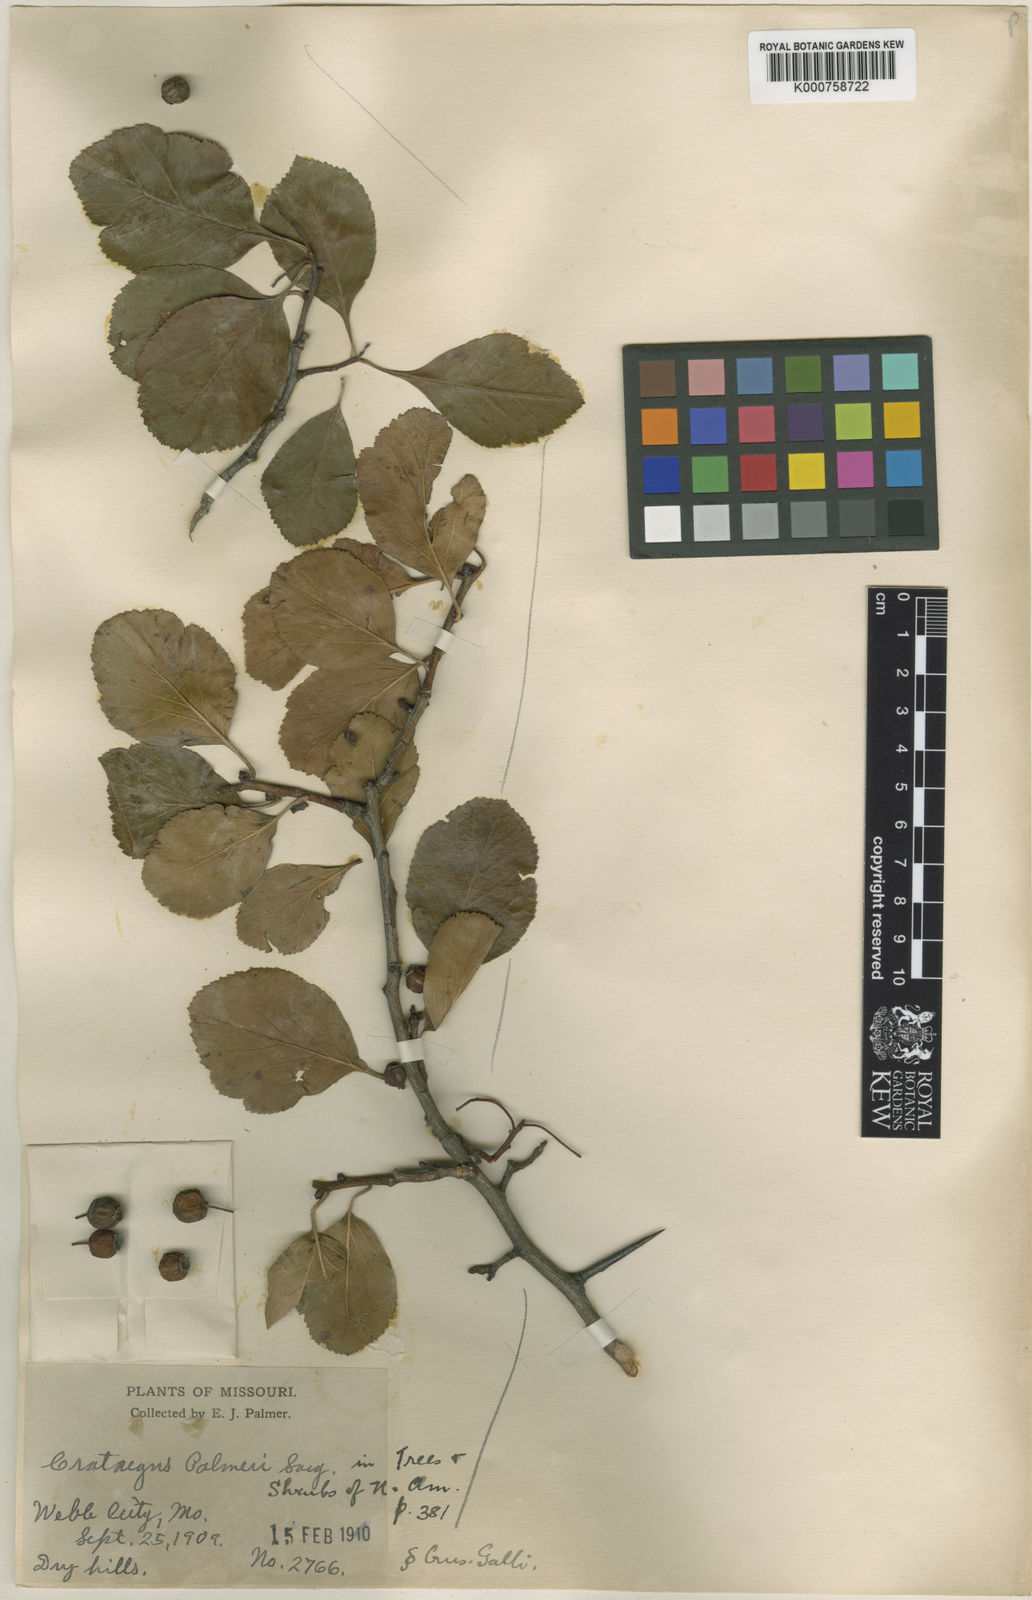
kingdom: Plantae
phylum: Tracheophyta
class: Magnoliopsida
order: Rosales
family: Rosaceae
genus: Crataegus
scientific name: Crataegus reverchonii
